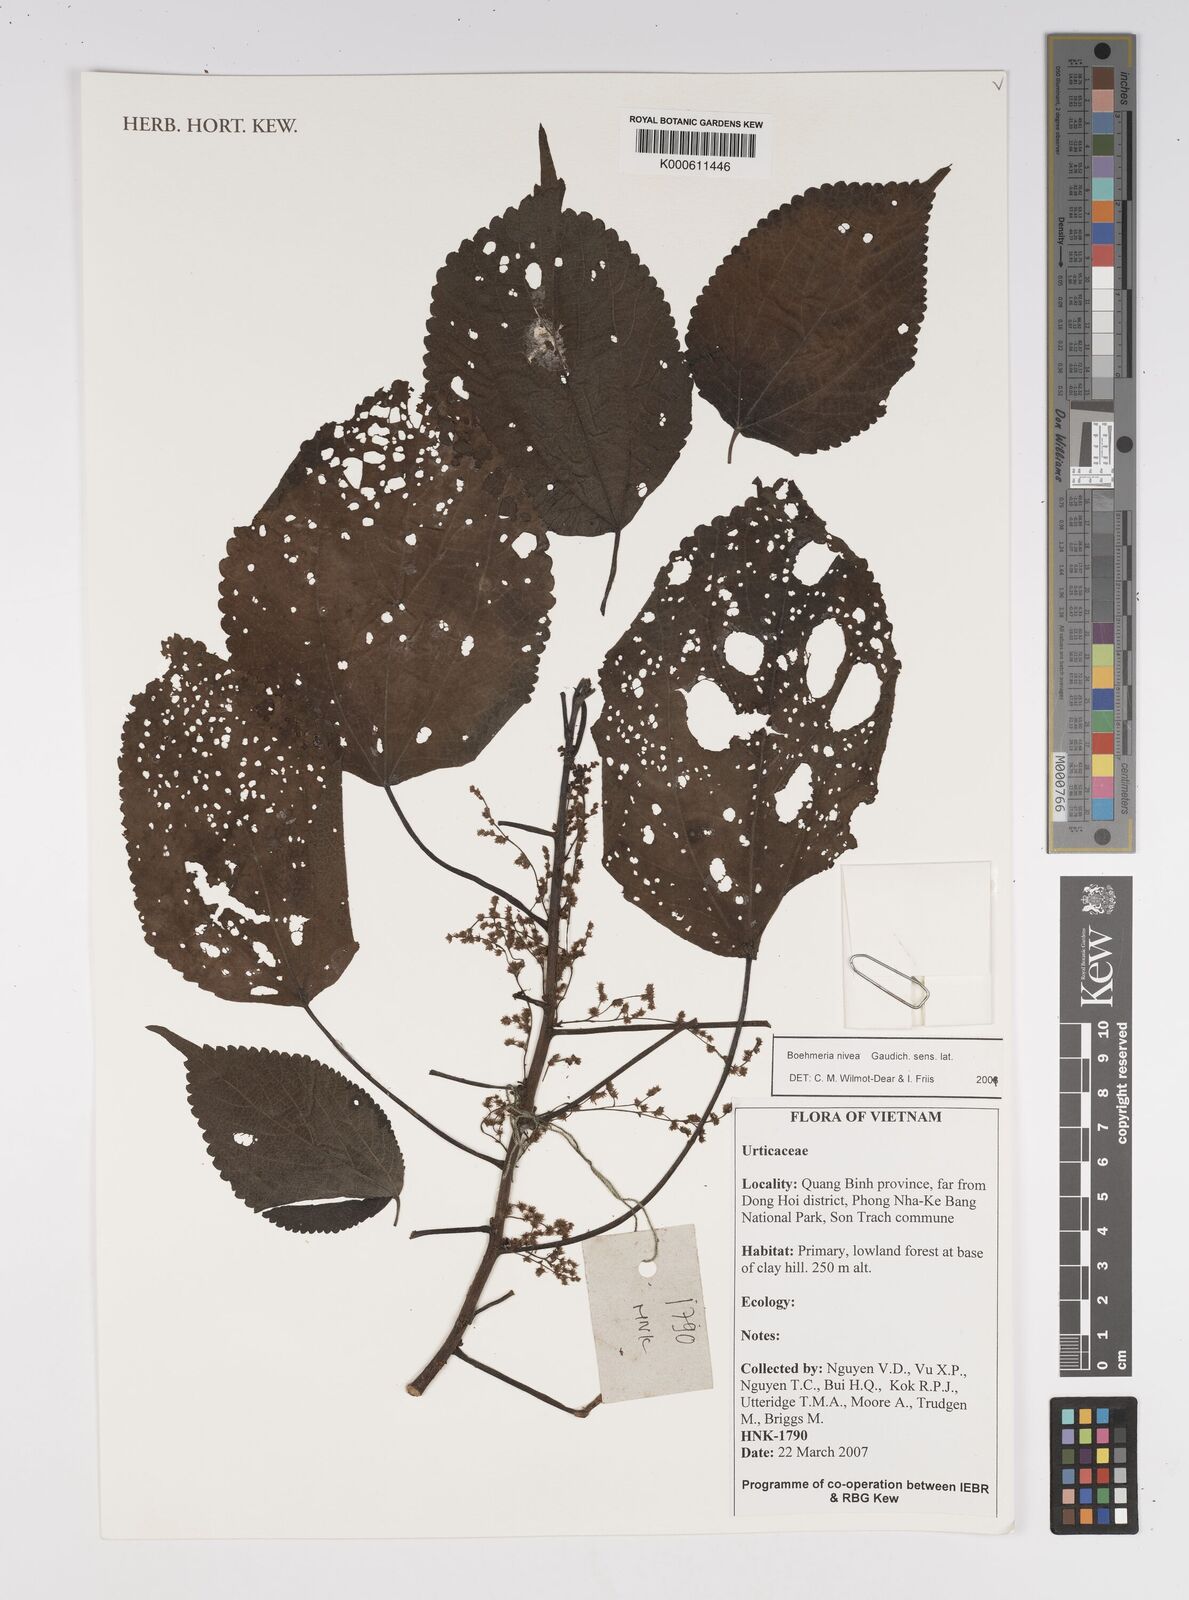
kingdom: Plantae
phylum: Tracheophyta
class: Magnoliopsida
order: Rosales
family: Urticaceae
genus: Boehmeria
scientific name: Boehmeria nivea
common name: Ramie chinese grass
